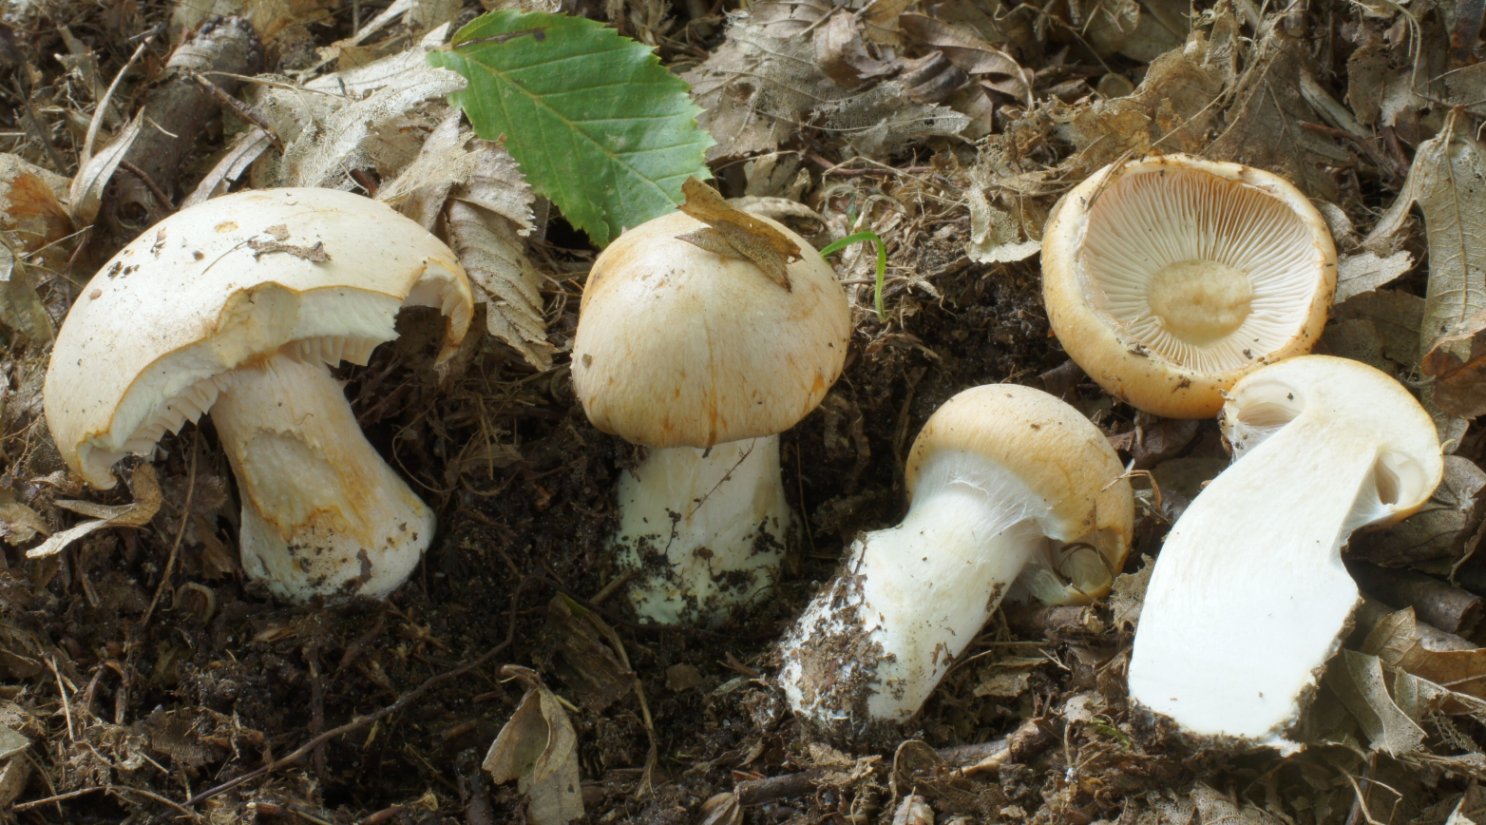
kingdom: Fungi
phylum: Basidiomycota
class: Agaricomycetes
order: Agaricales
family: Cortinariaceae
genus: Thaxterogaster
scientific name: Thaxterogaster talus
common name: knogle-slørhat
